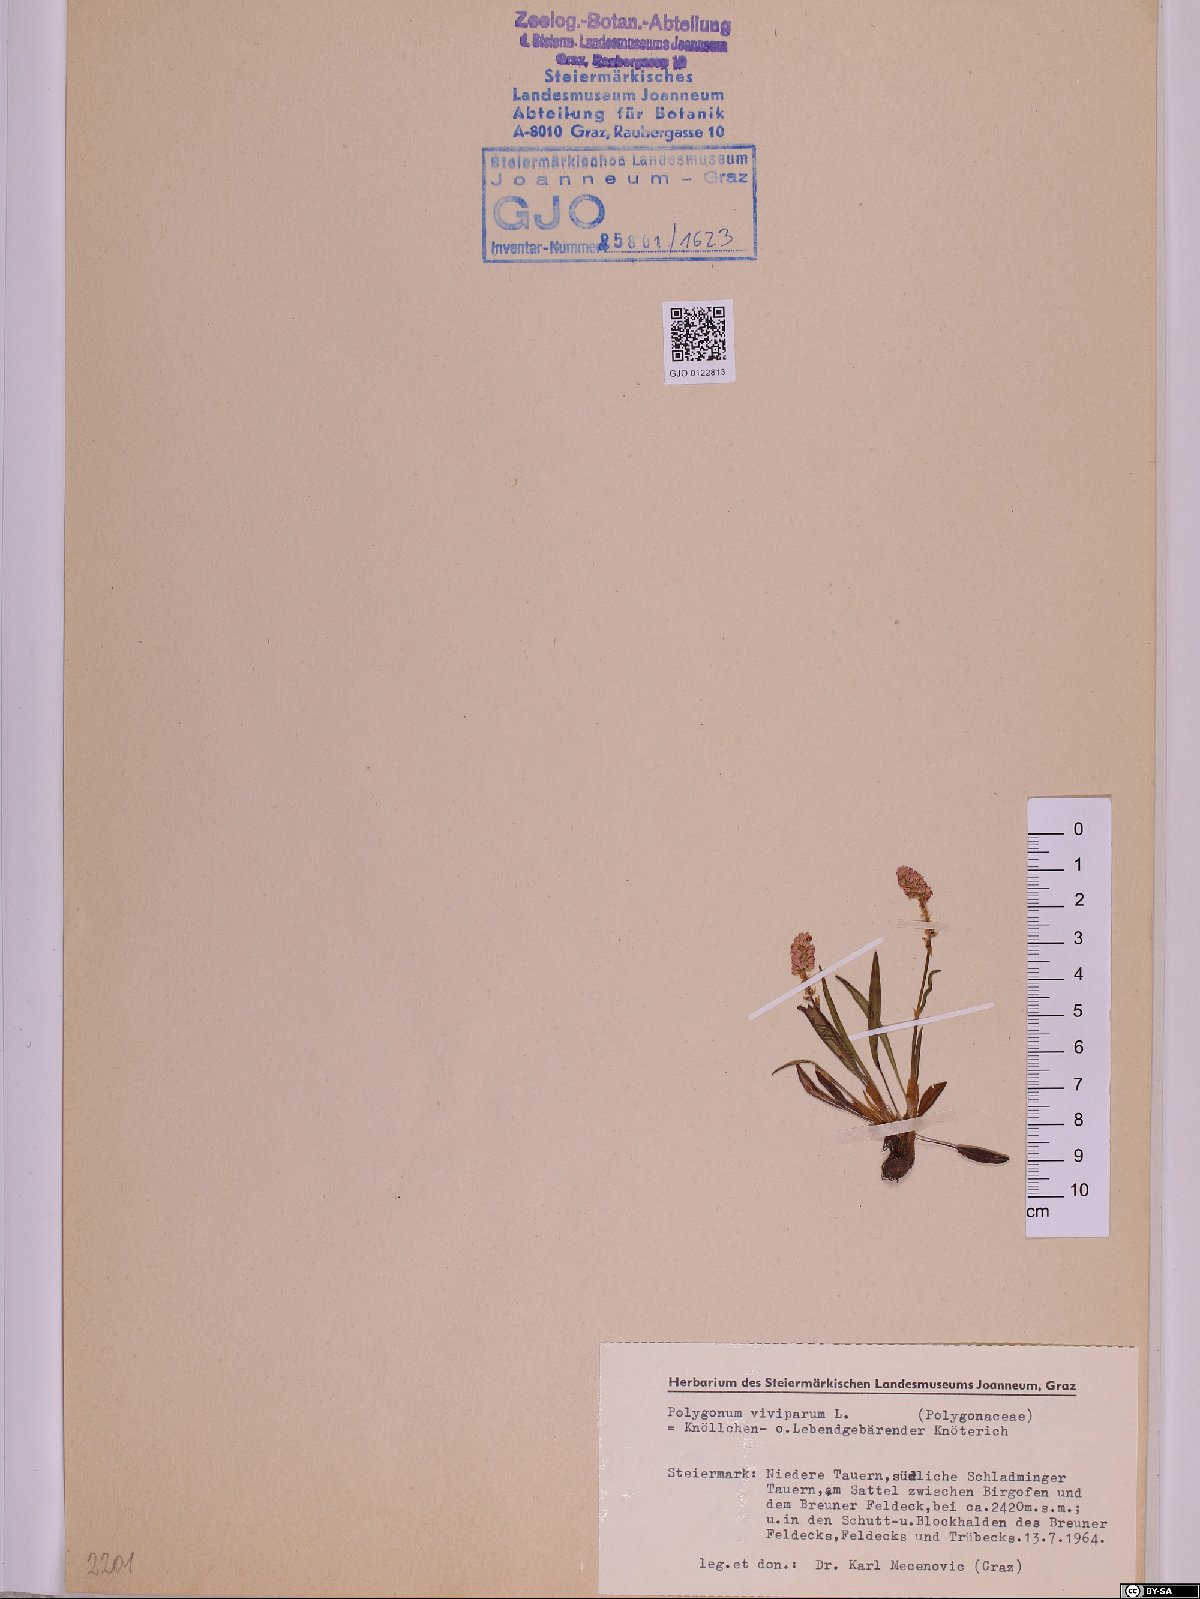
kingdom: Plantae
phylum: Tracheophyta
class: Magnoliopsida
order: Caryophyllales
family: Polygonaceae
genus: Bistorta
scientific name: Bistorta vivipara
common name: Alpine bistort
